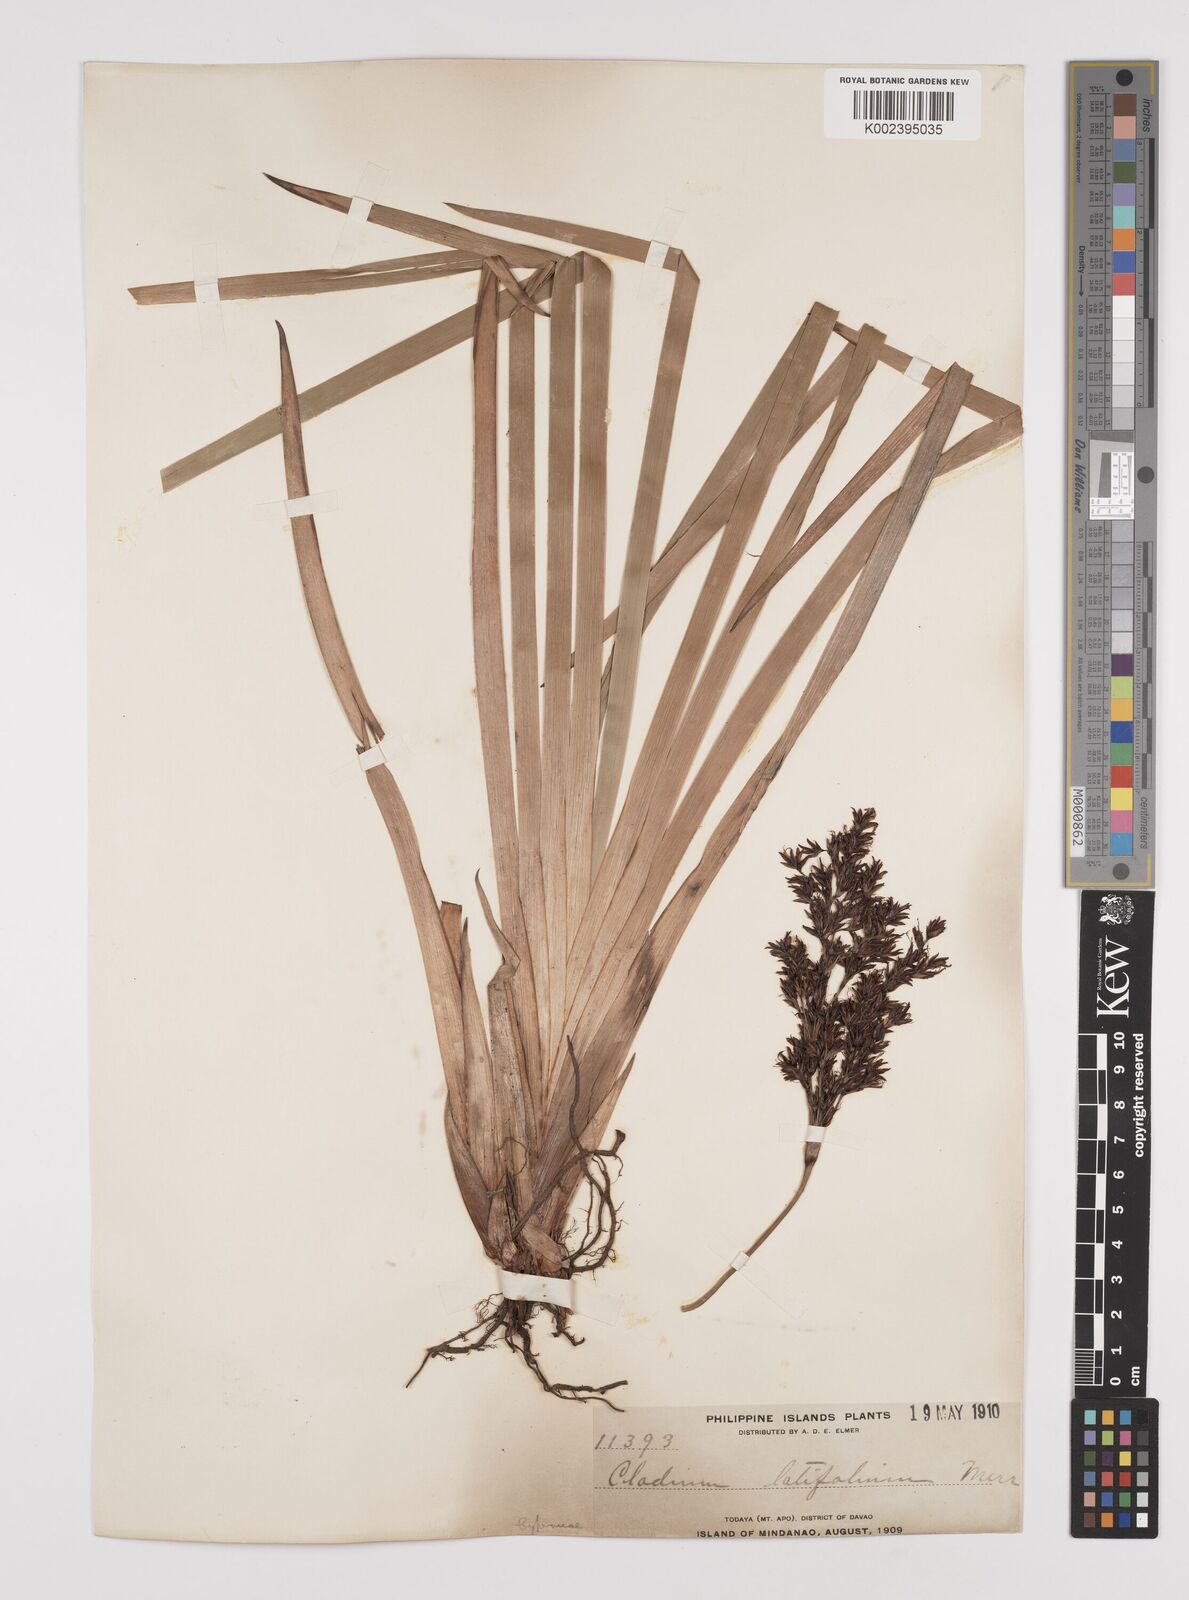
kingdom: Plantae
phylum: Tracheophyta
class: Liliopsida
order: Poales
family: Cyperaceae
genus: Machaerina
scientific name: Machaerina sinclairii
